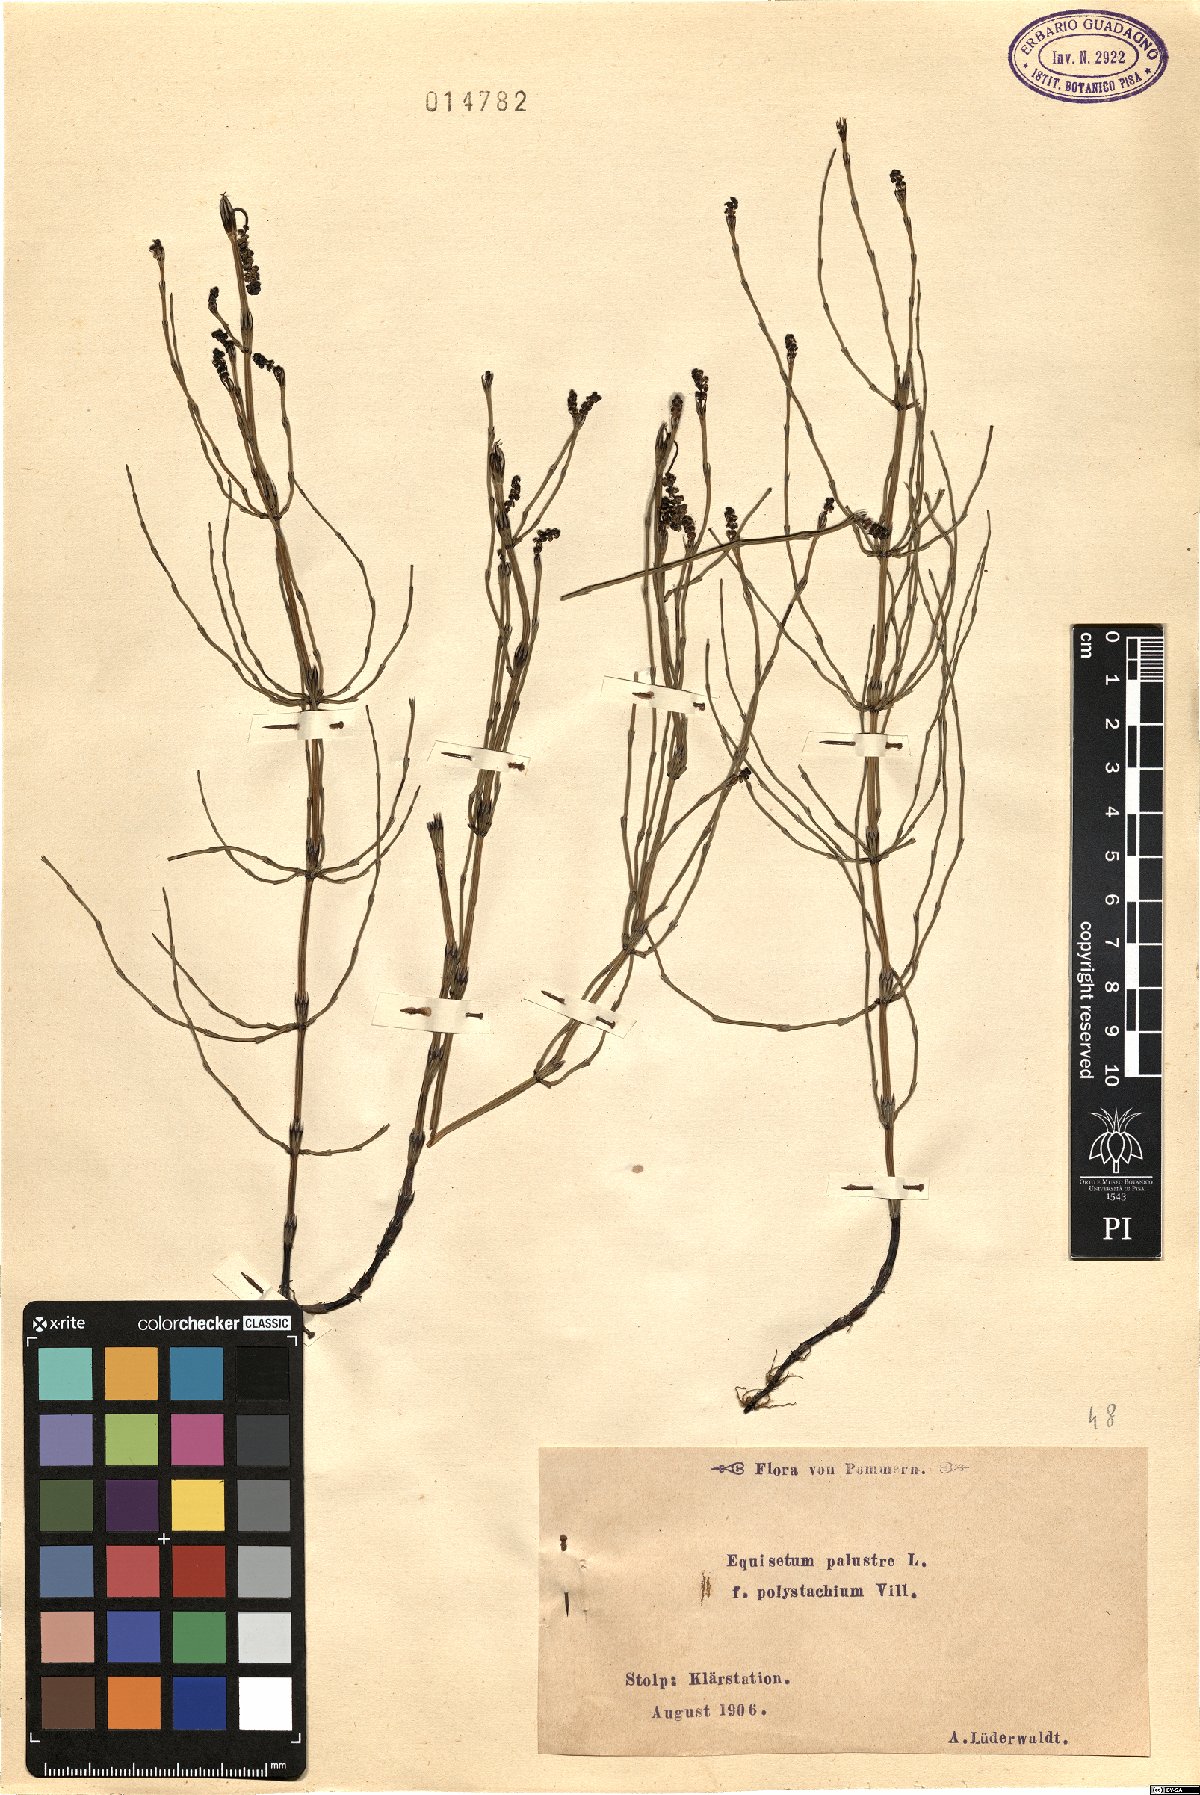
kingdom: Plantae
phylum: Tracheophyta
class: Polypodiopsida
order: Equisetales
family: Equisetaceae
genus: Equisetum
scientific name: Equisetum palustre
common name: Marsh horsetail
